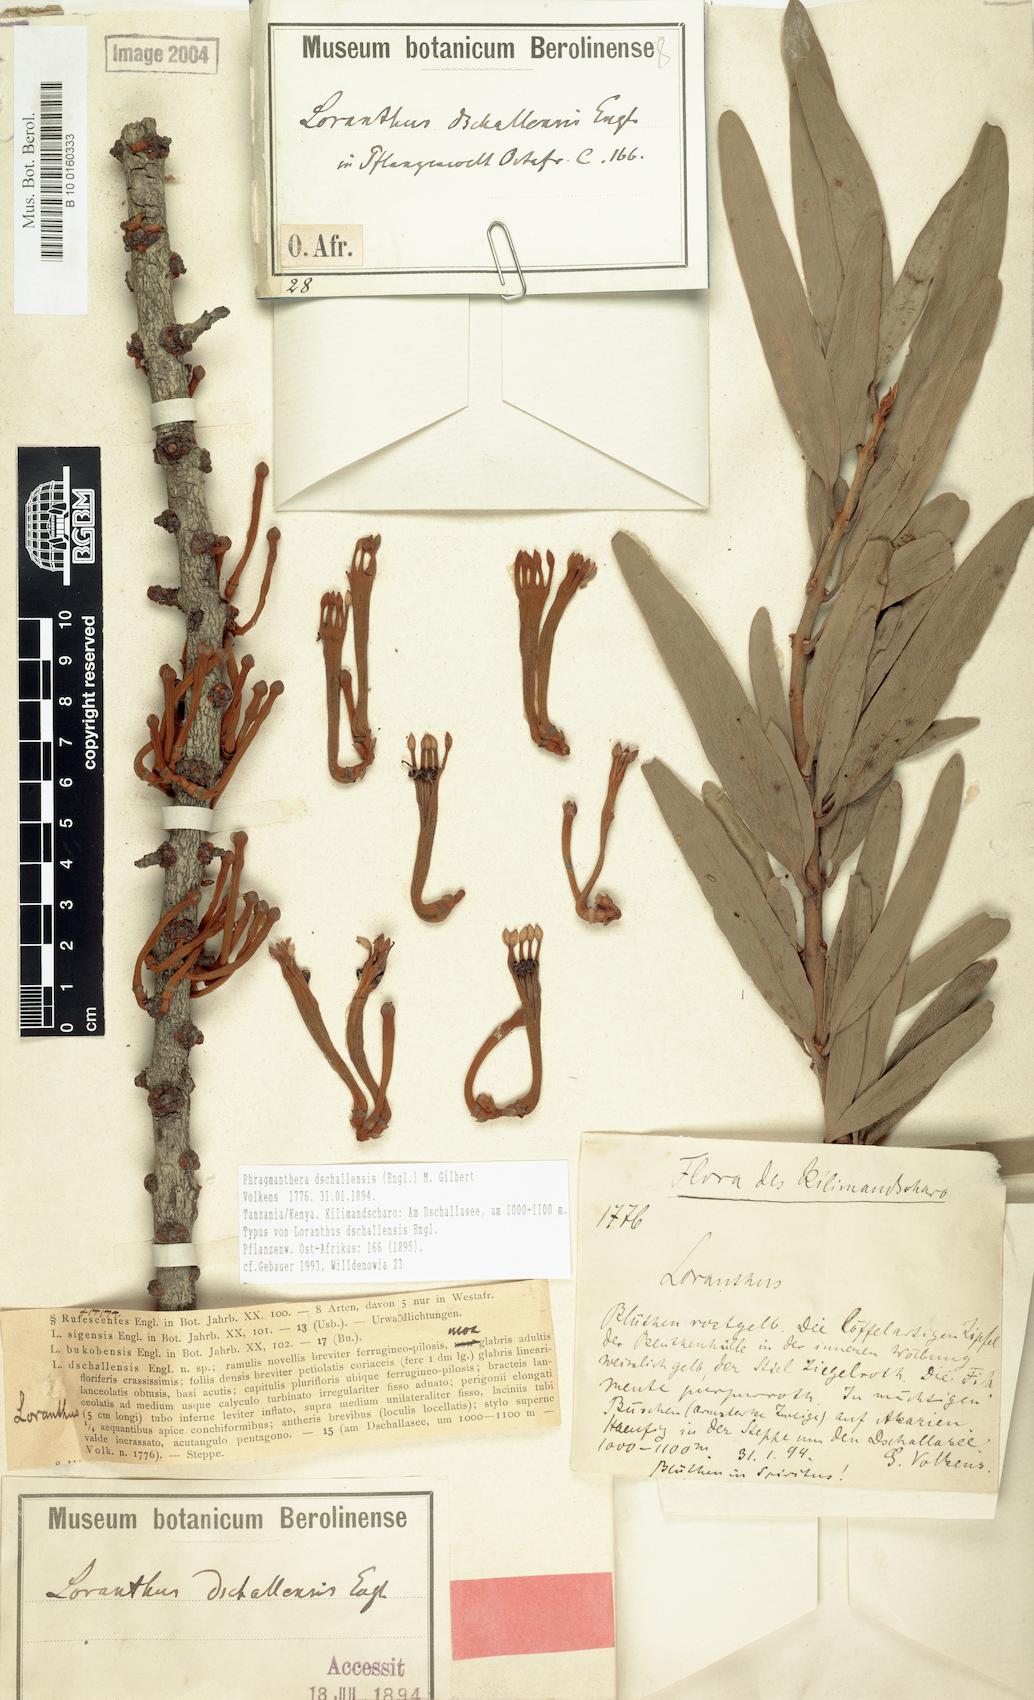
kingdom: Plantae
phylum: Tracheophyta
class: Magnoliopsida
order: Santalales
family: Loranthaceae
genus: Phragmanthera
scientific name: Phragmanthera dschallensis
